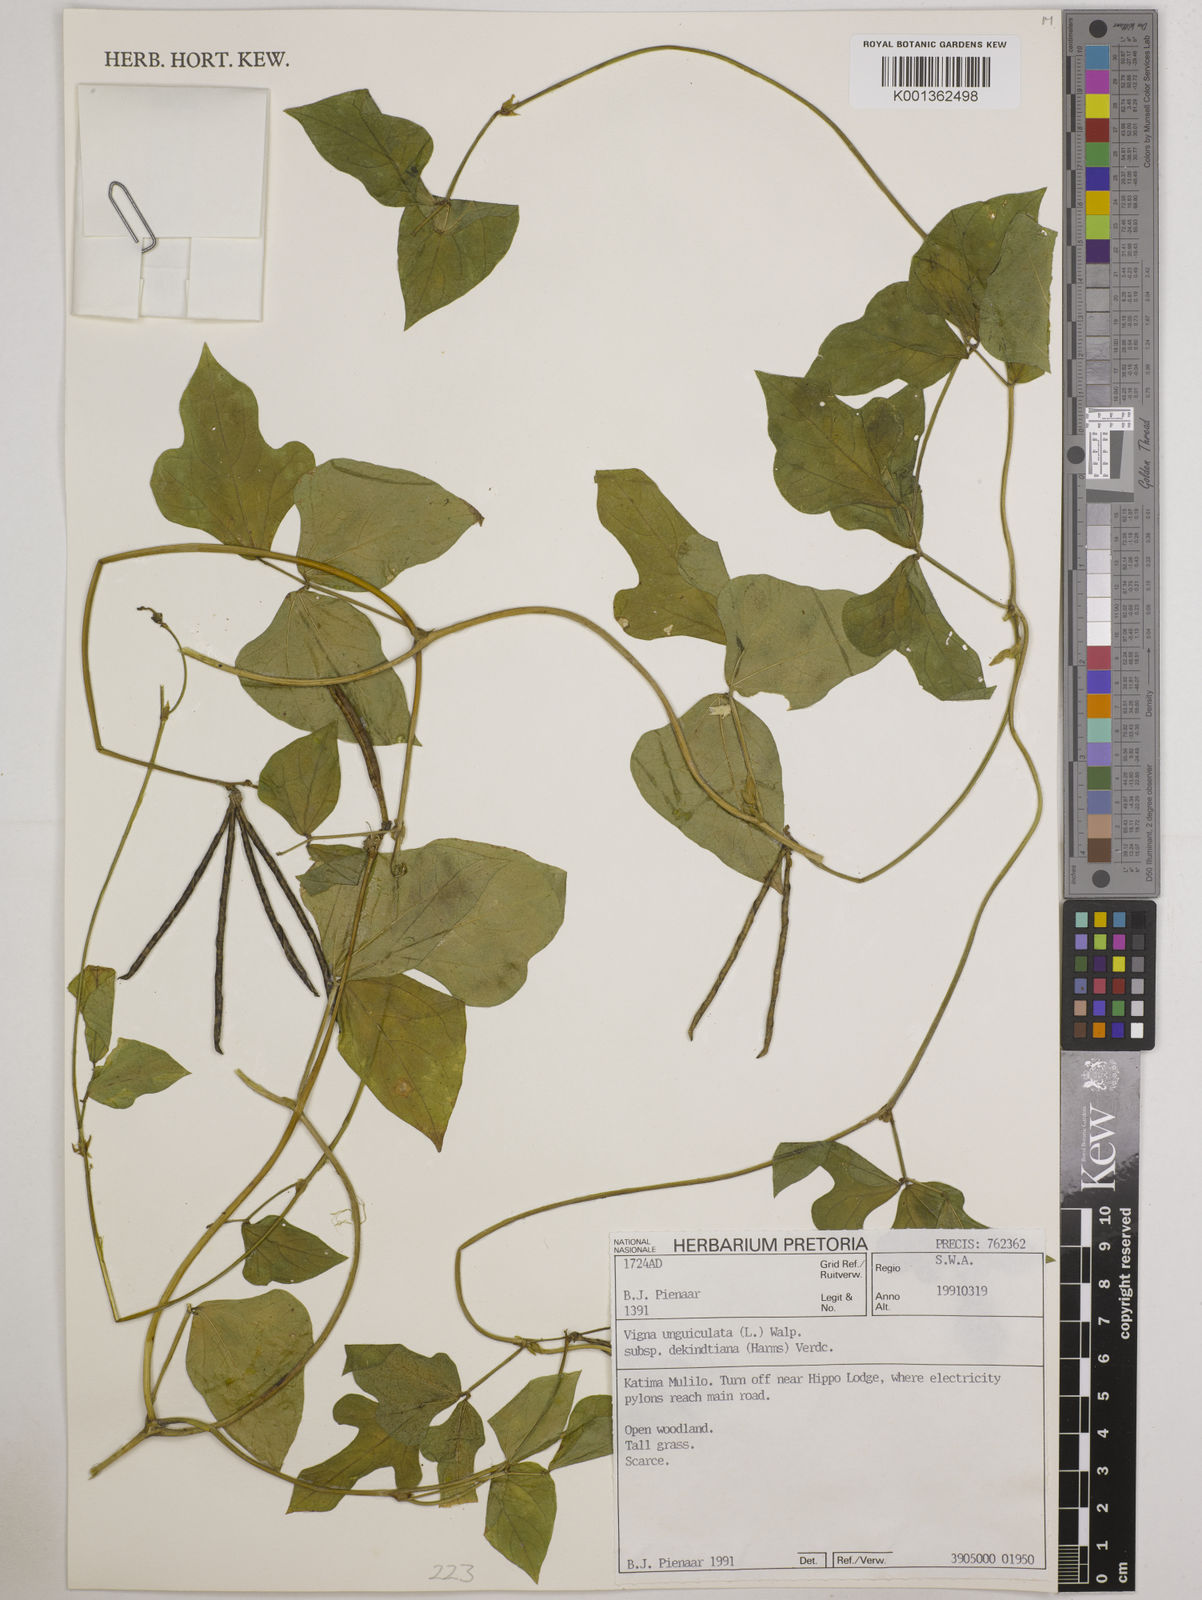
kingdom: Plantae
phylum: Tracheophyta
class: Magnoliopsida
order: Fabales
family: Fabaceae
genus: Vigna
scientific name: Vigna
